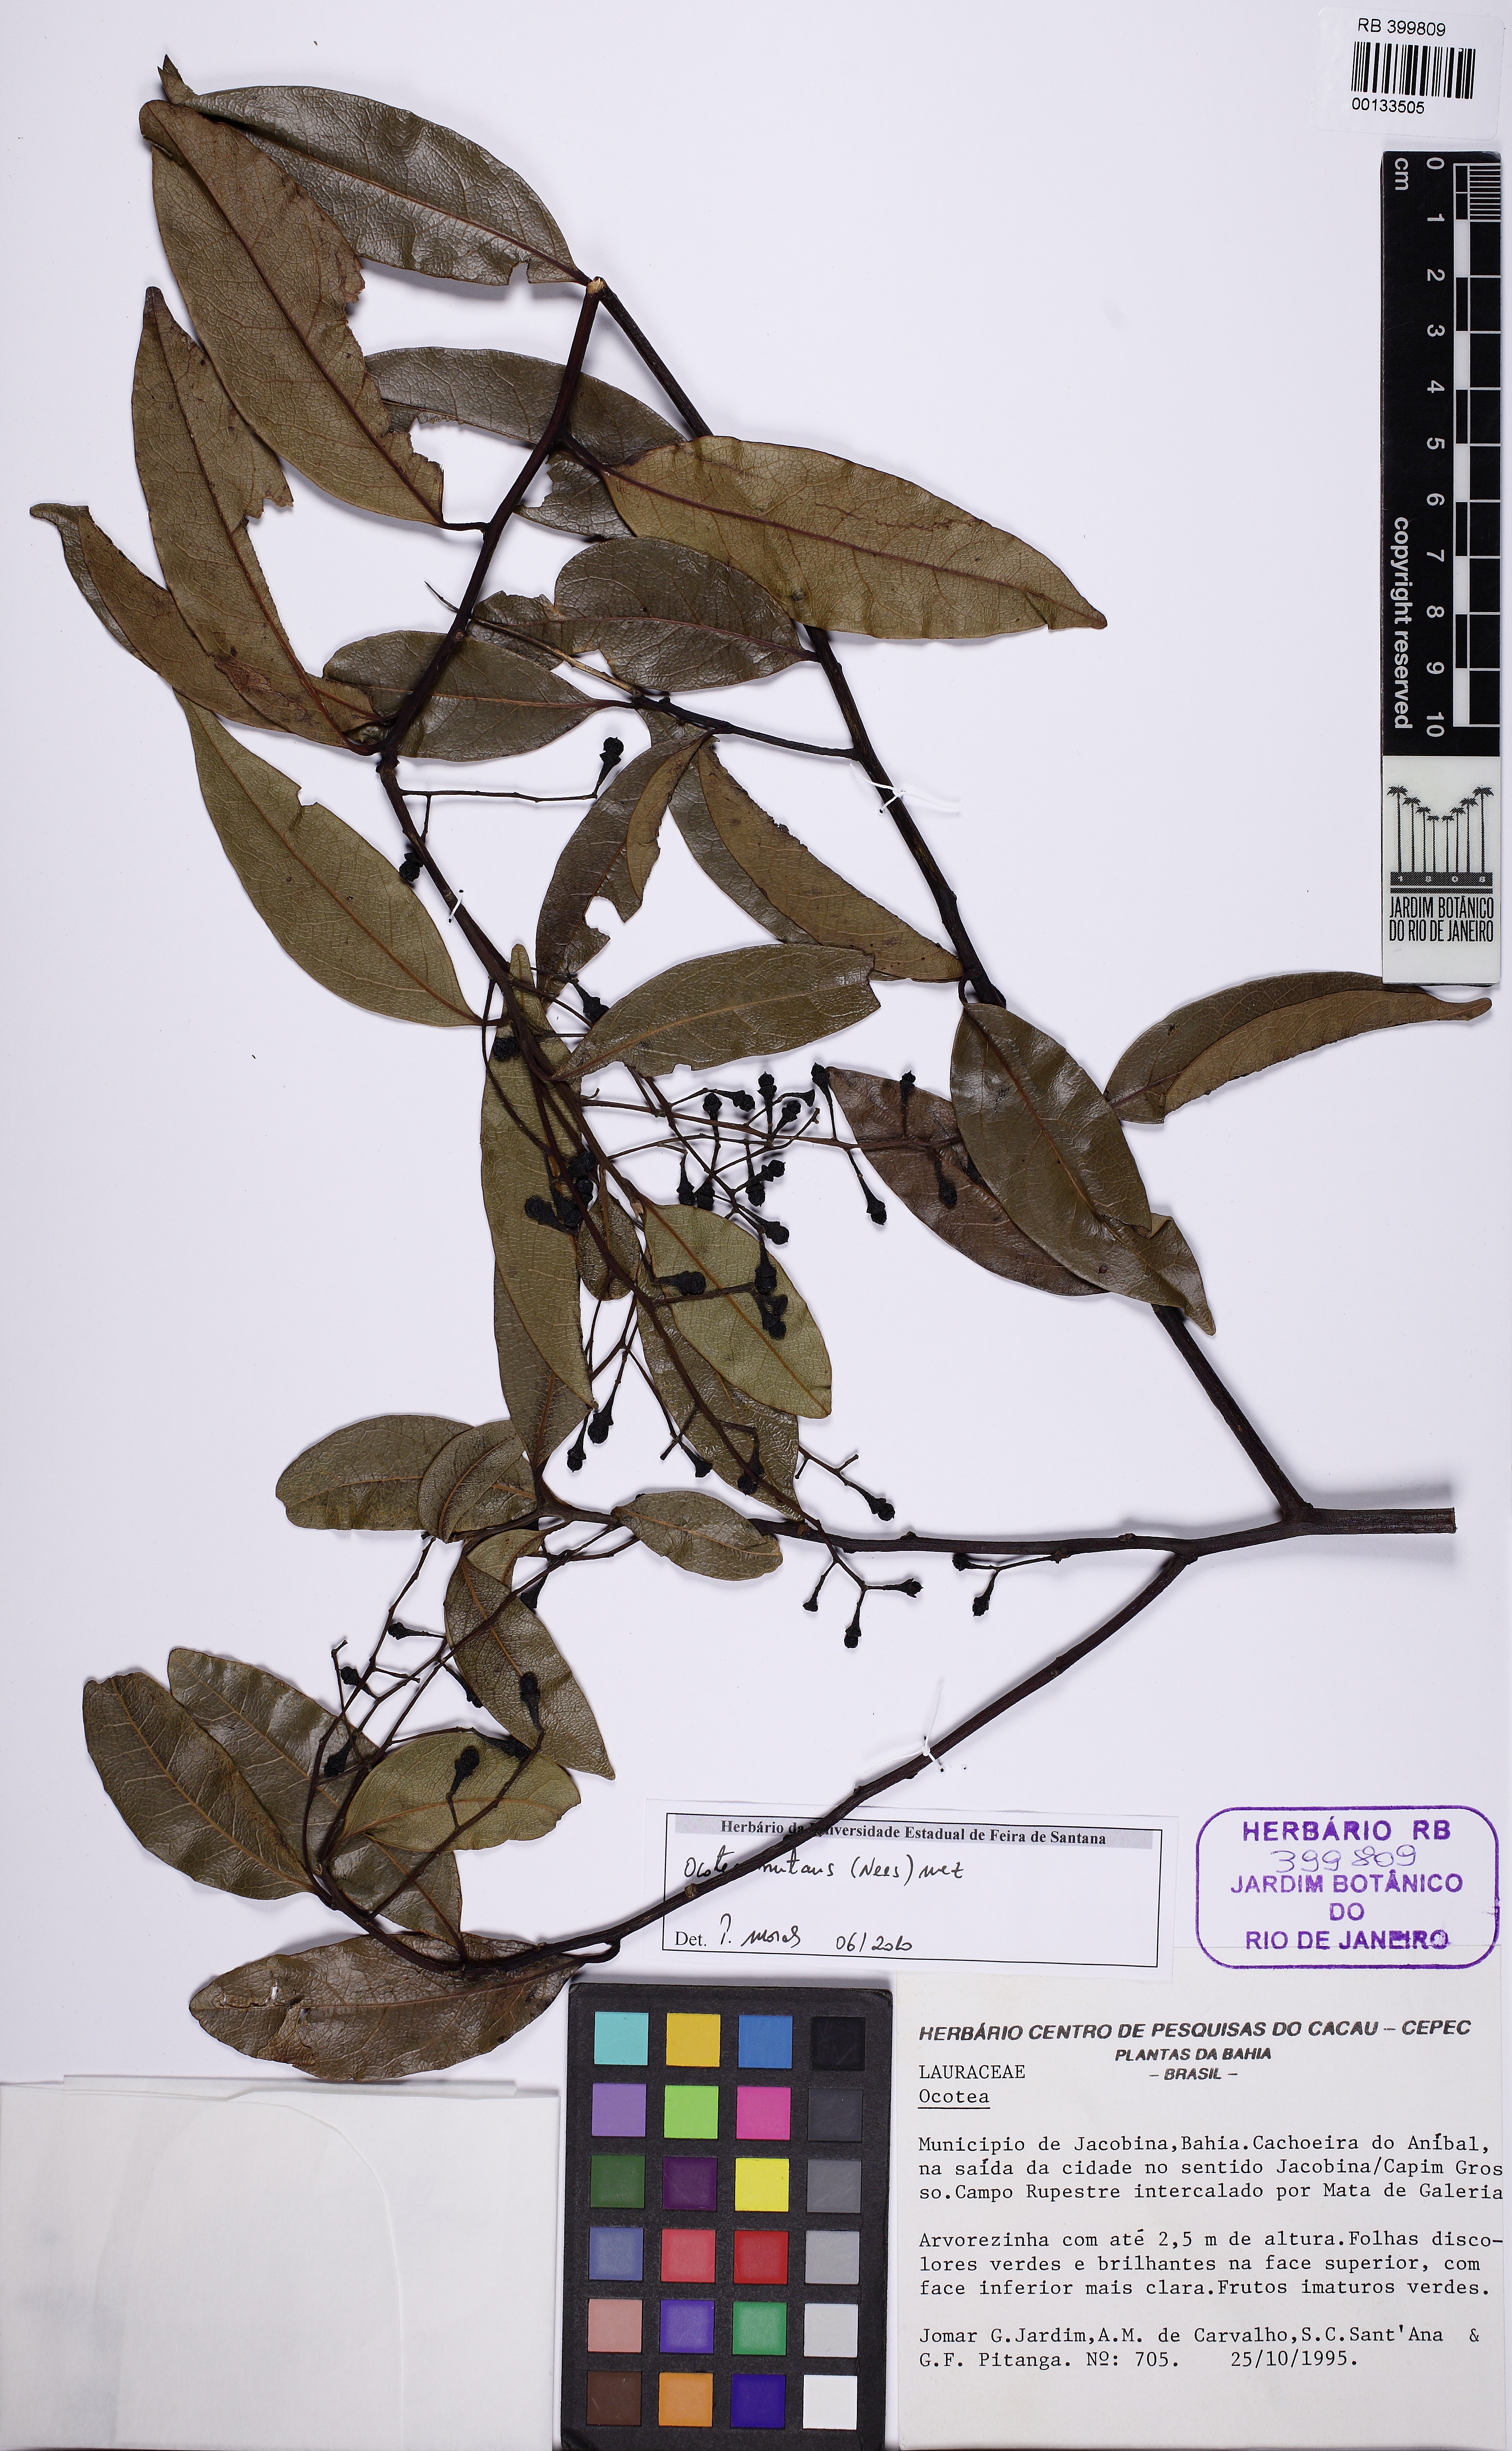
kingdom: Plantae
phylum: Tracheophyta
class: Magnoliopsida
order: Laurales
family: Lauraceae
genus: Mespilodaphne
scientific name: Mespilodaphne nutans
